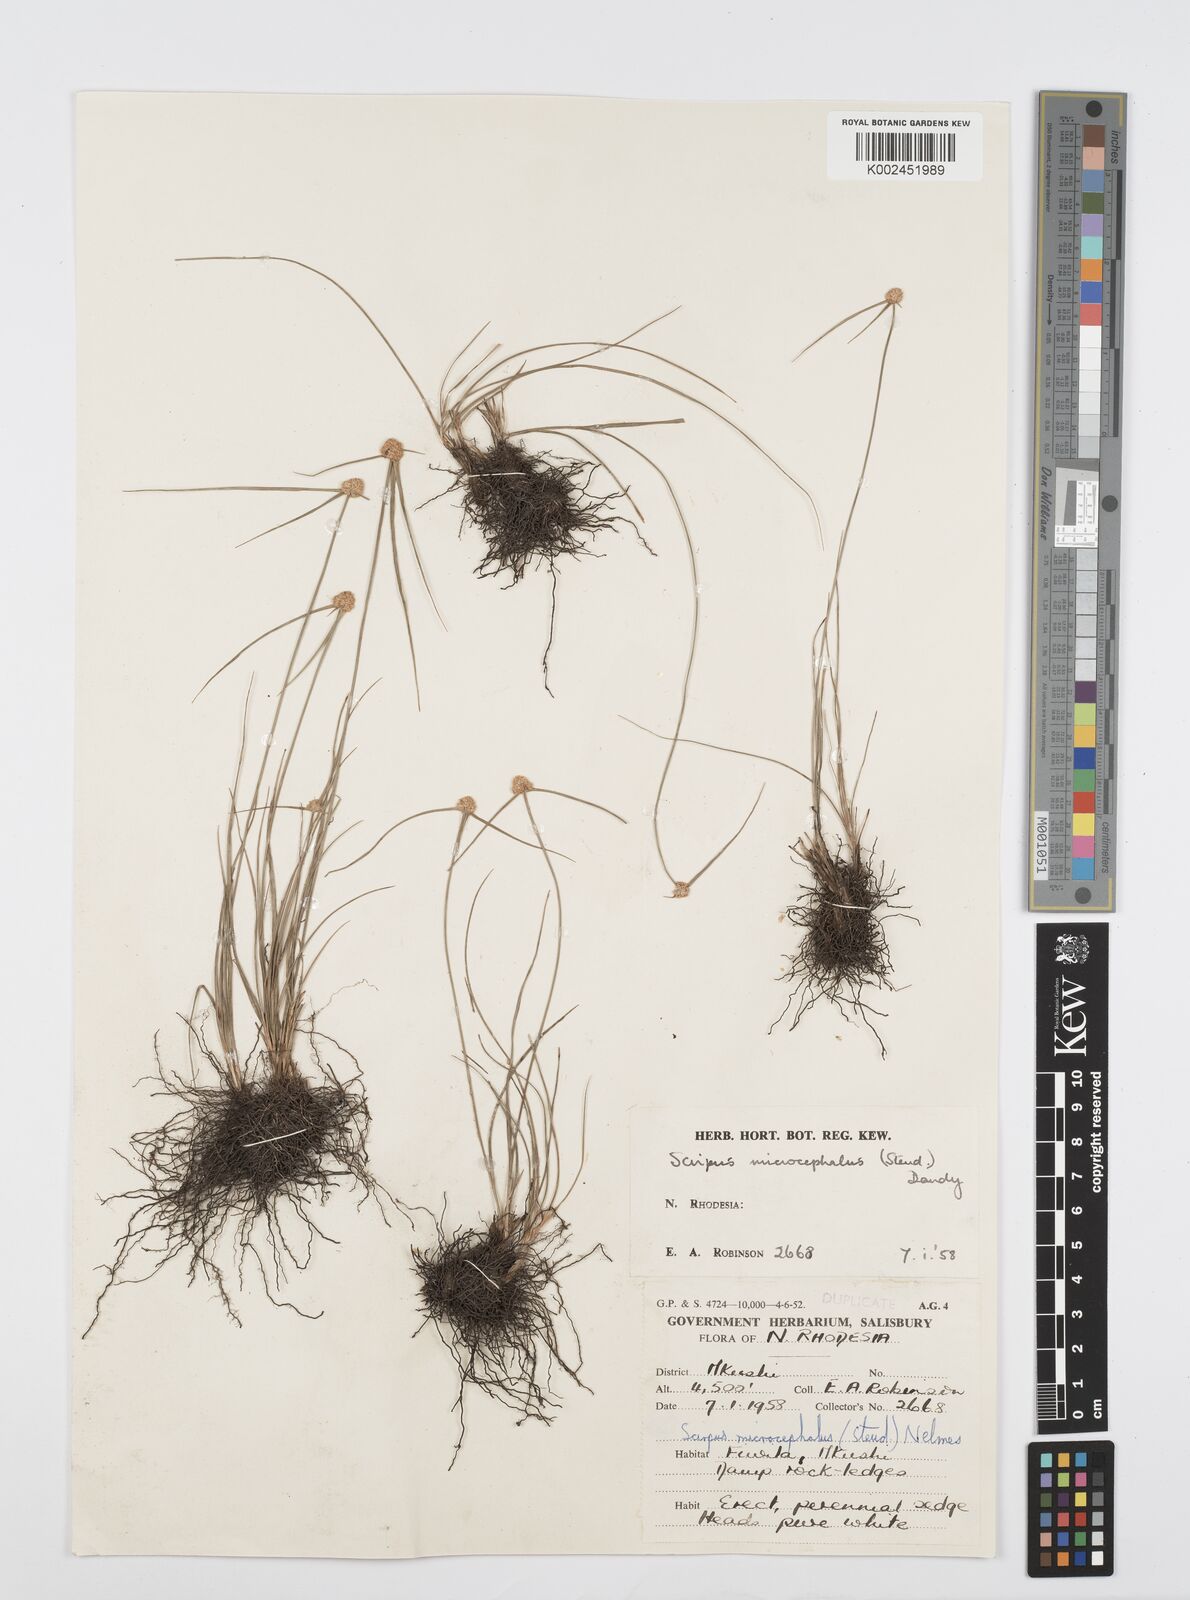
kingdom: Plantae
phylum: Tracheophyta
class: Liliopsida
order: Poales
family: Cyperaceae
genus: Cyperus
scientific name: Cyperus microcephalus
